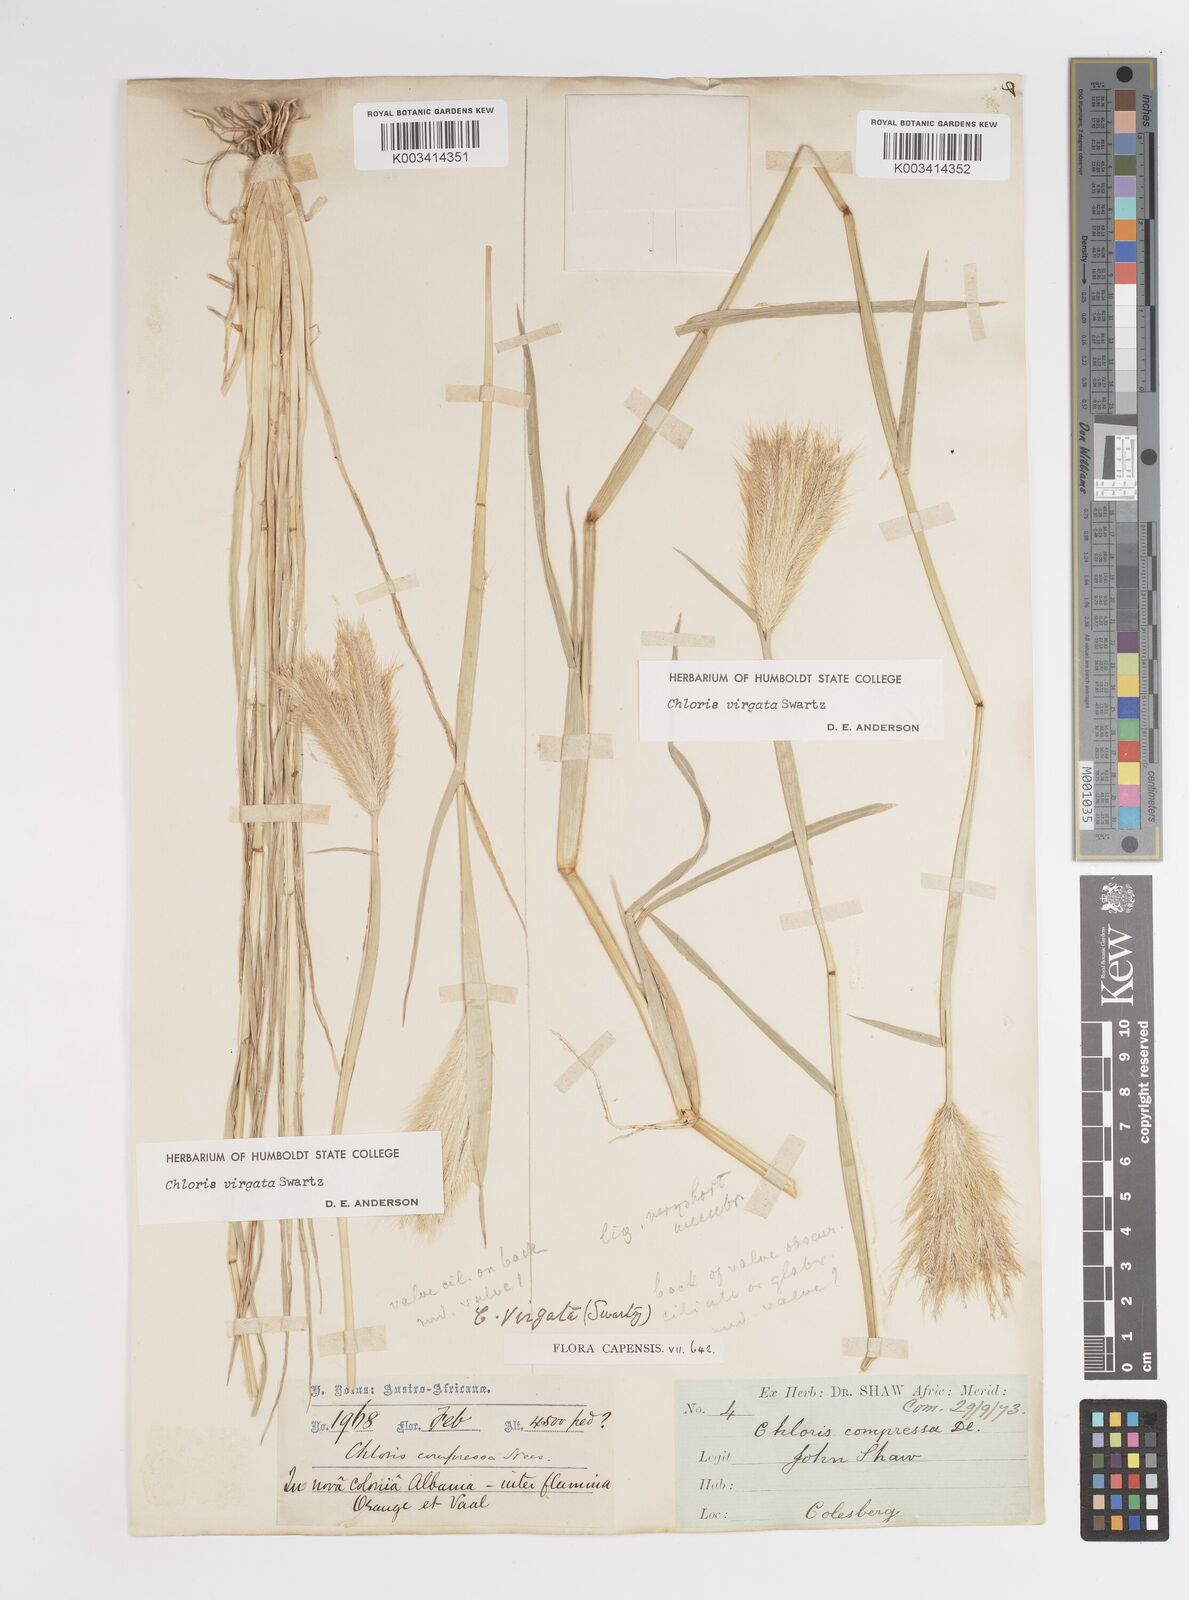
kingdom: Plantae
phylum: Tracheophyta
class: Liliopsida
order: Poales
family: Poaceae
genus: Chloris
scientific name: Chloris virgata
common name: Feathery rhodes-grass
